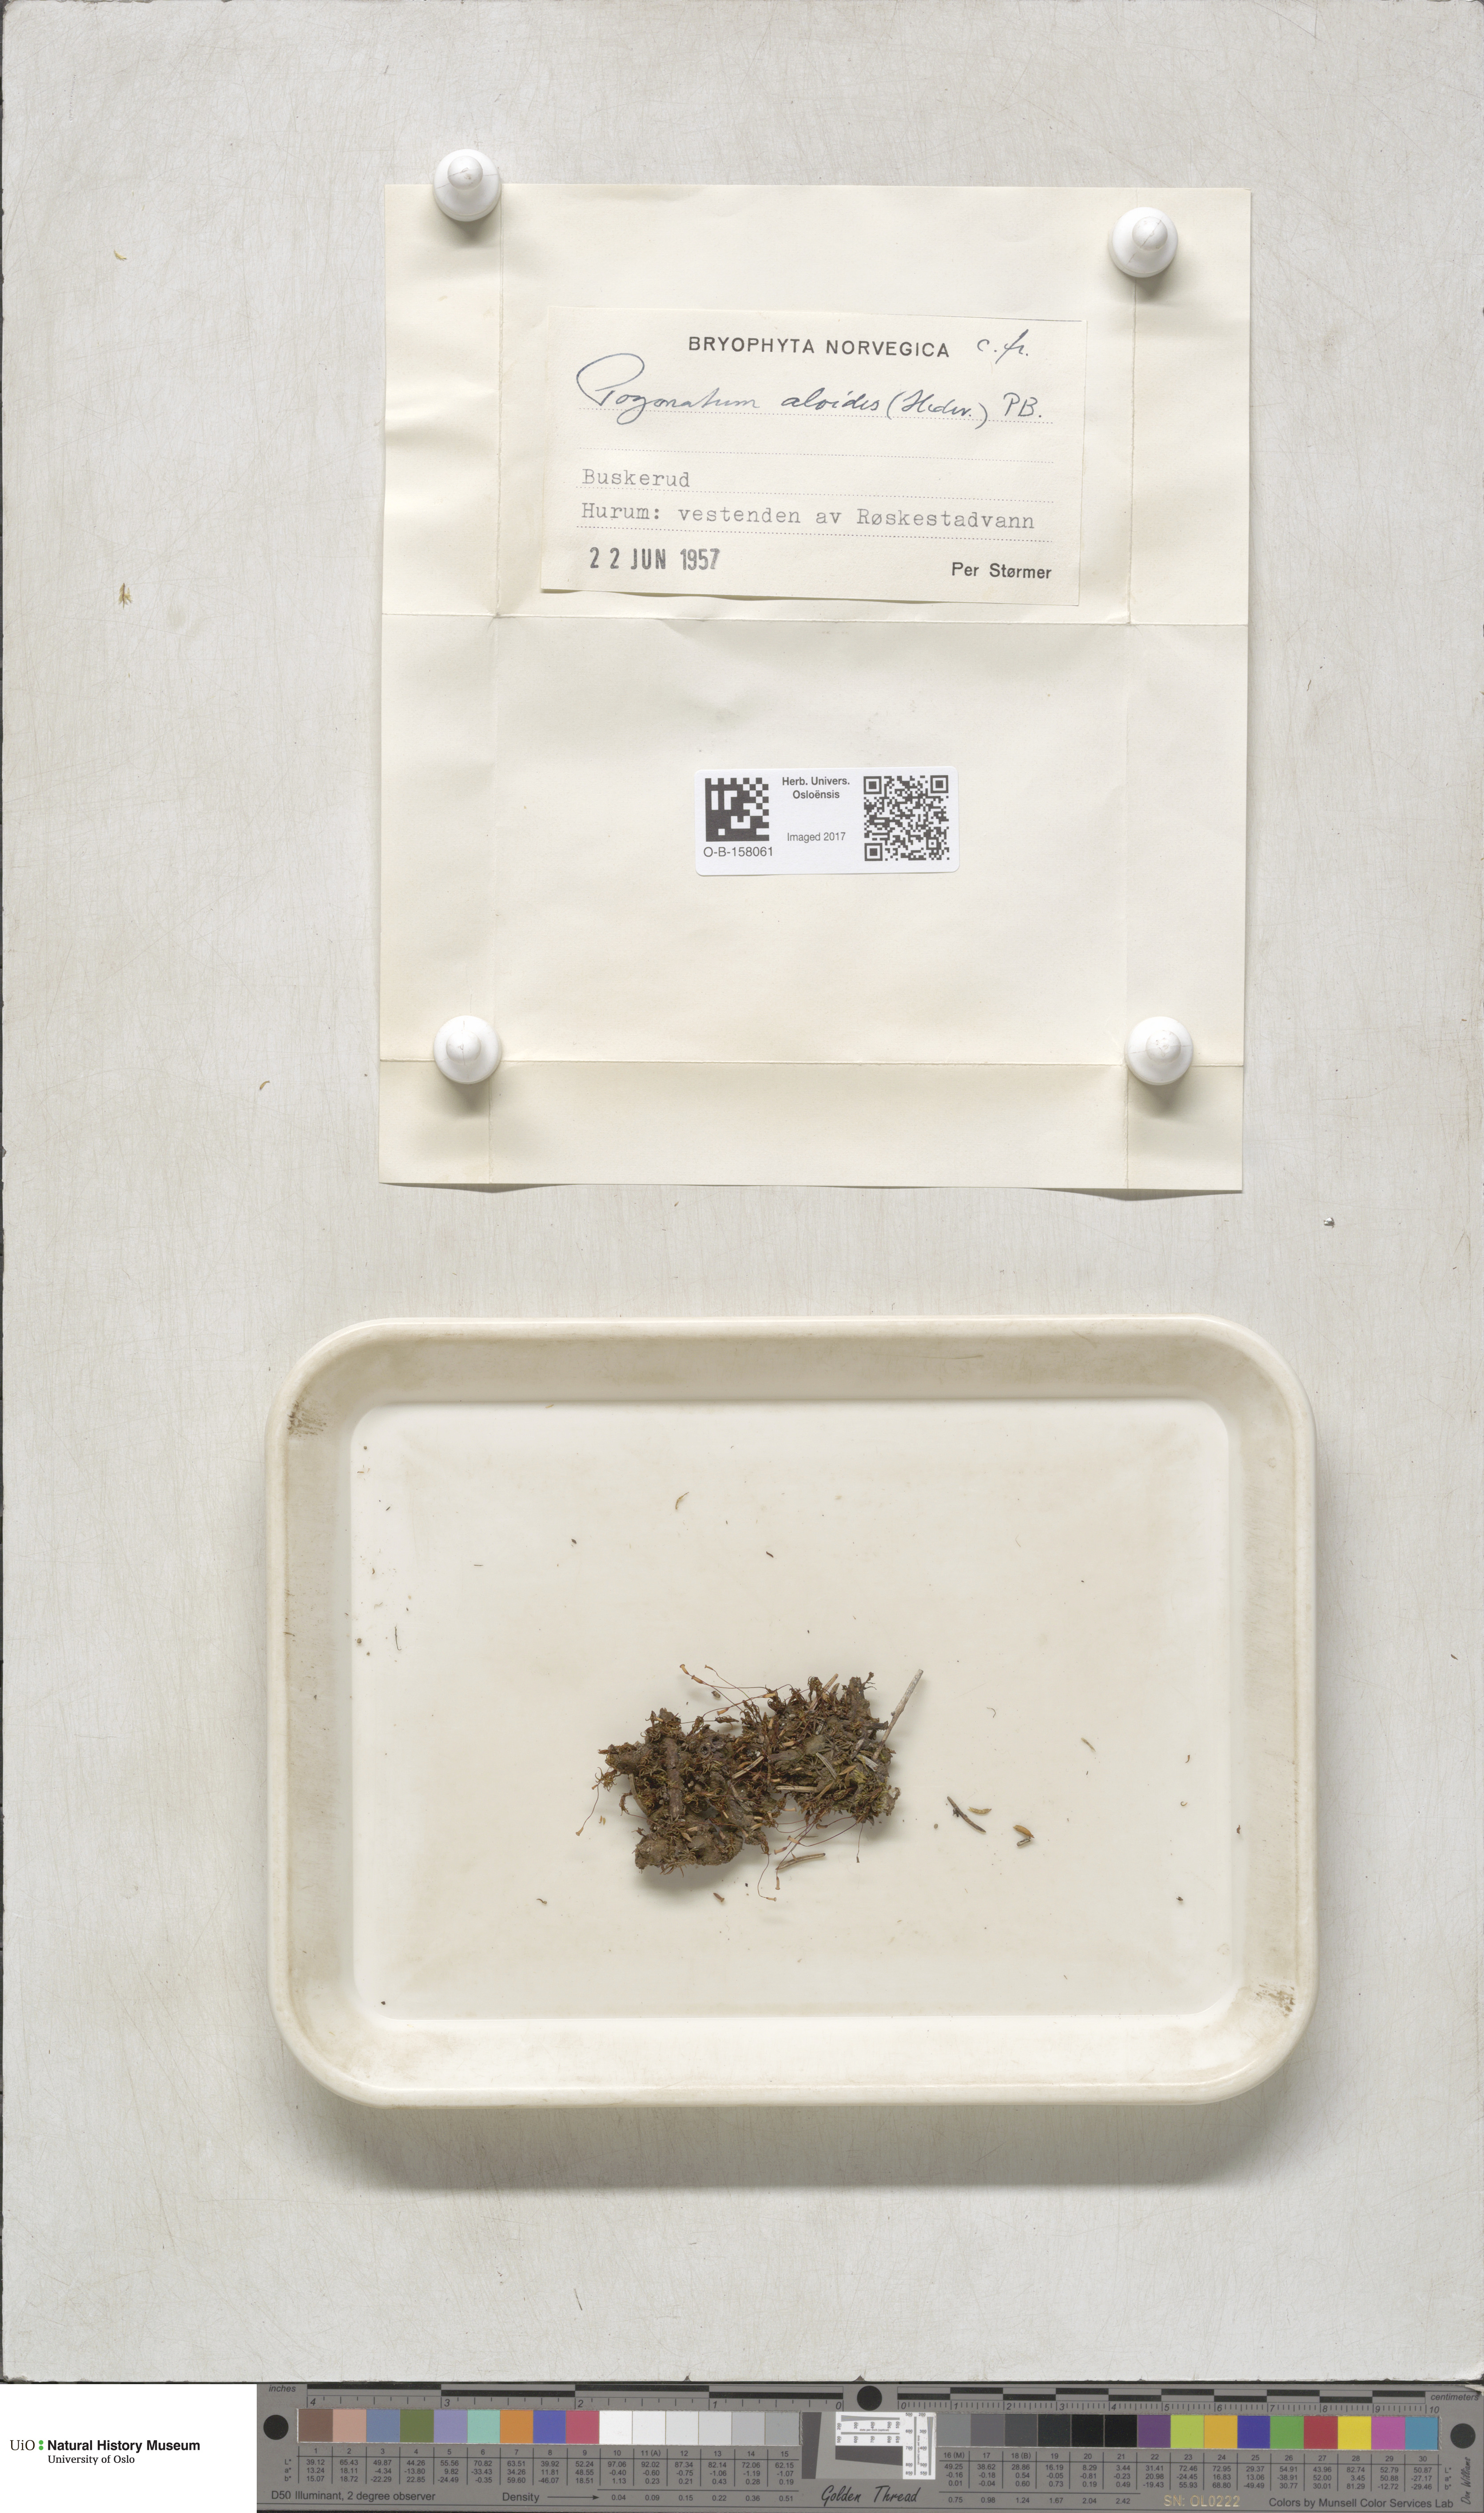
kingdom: Plantae
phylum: Bryophyta
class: Polytrichopsida
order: Polytrichales
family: Polytrichaceae
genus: Pogonatum
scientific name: Pogonatum aloides
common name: Aloe haircap
